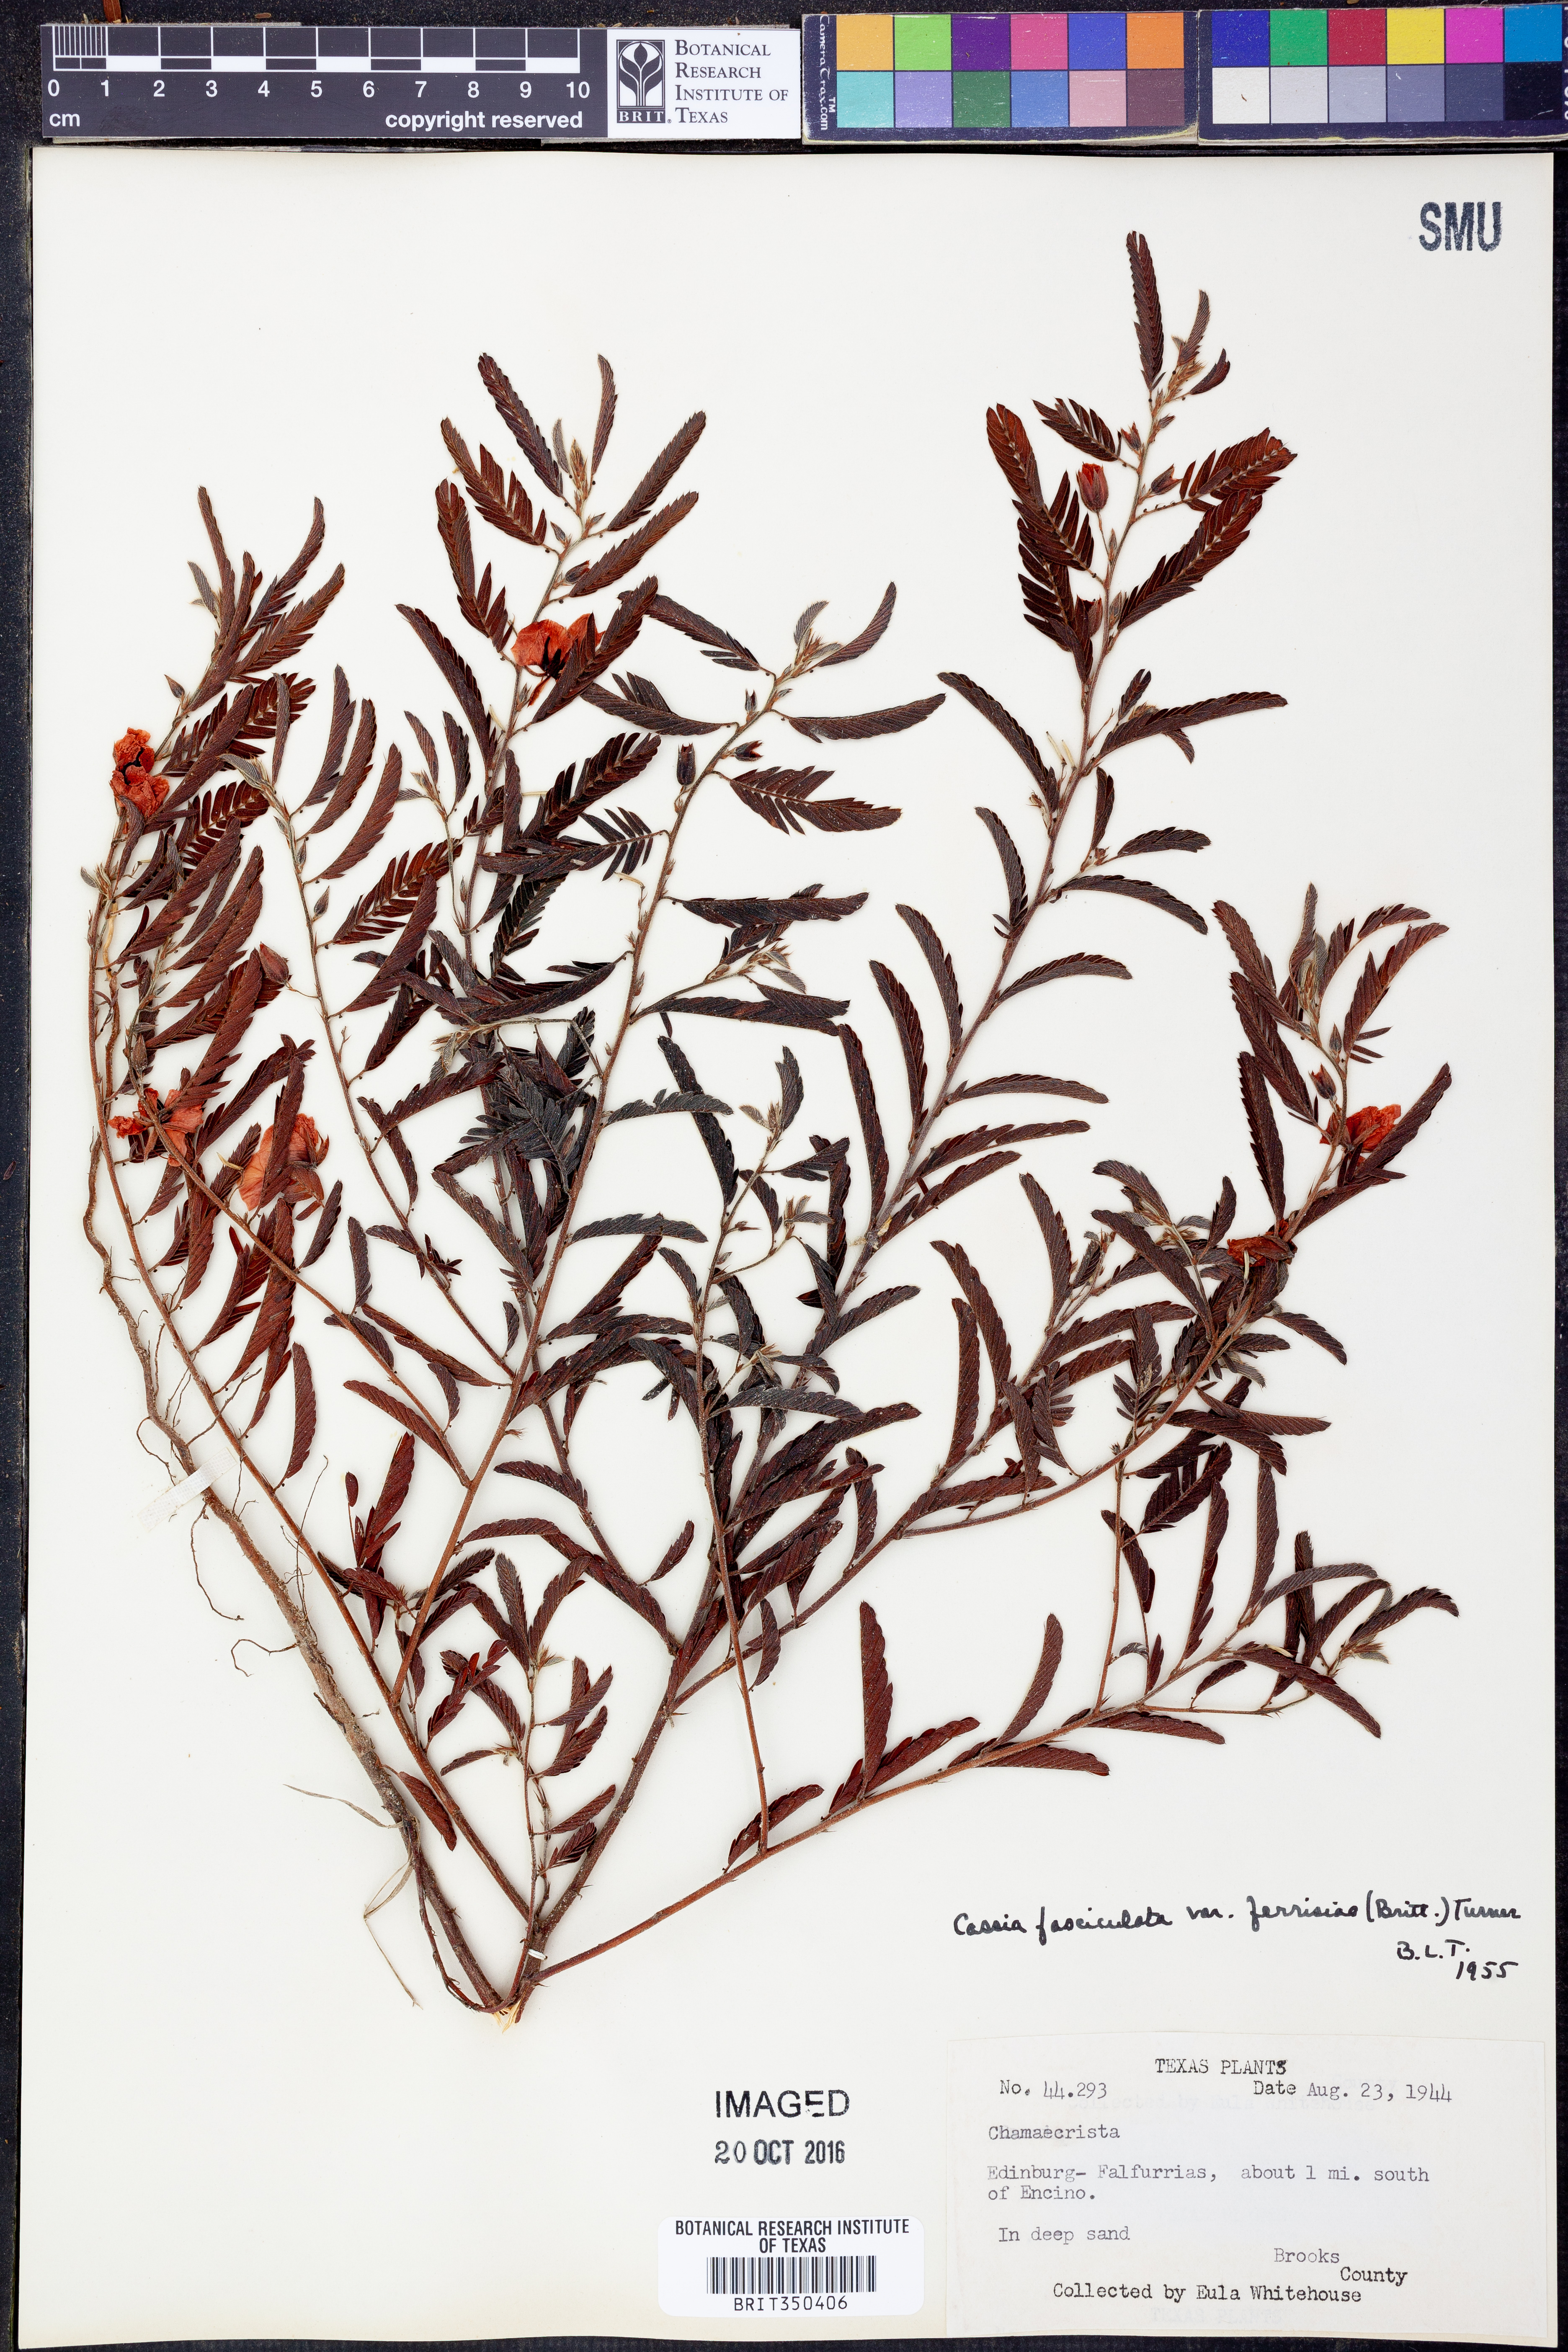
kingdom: Plantae
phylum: Tracheophyta
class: Magnoliopsida
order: Fabales
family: Fabaceae
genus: Chamaecrista
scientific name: Chamaecrista fasciculata
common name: Golden cassia
